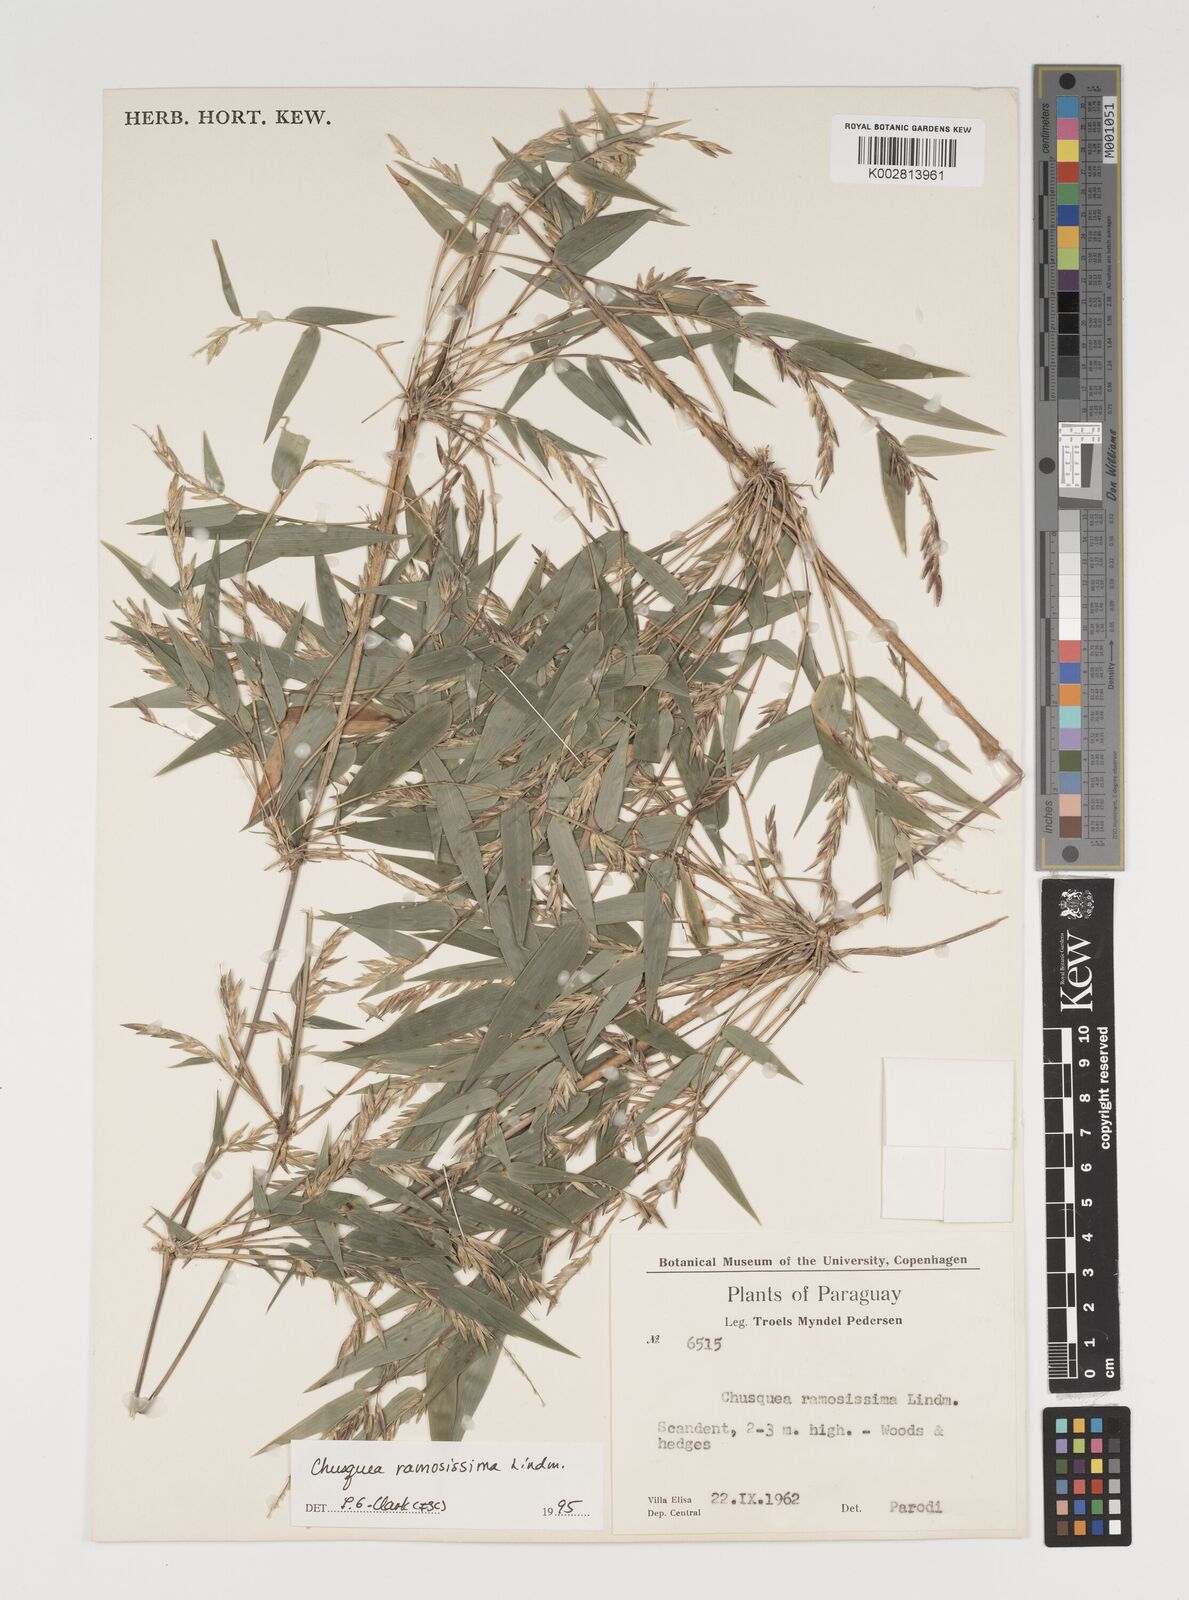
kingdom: Plantae
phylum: Tracheophyta
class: Liliopsida
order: Poales
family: Poaceae
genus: Chusquea
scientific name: Chusquea ramosissima
